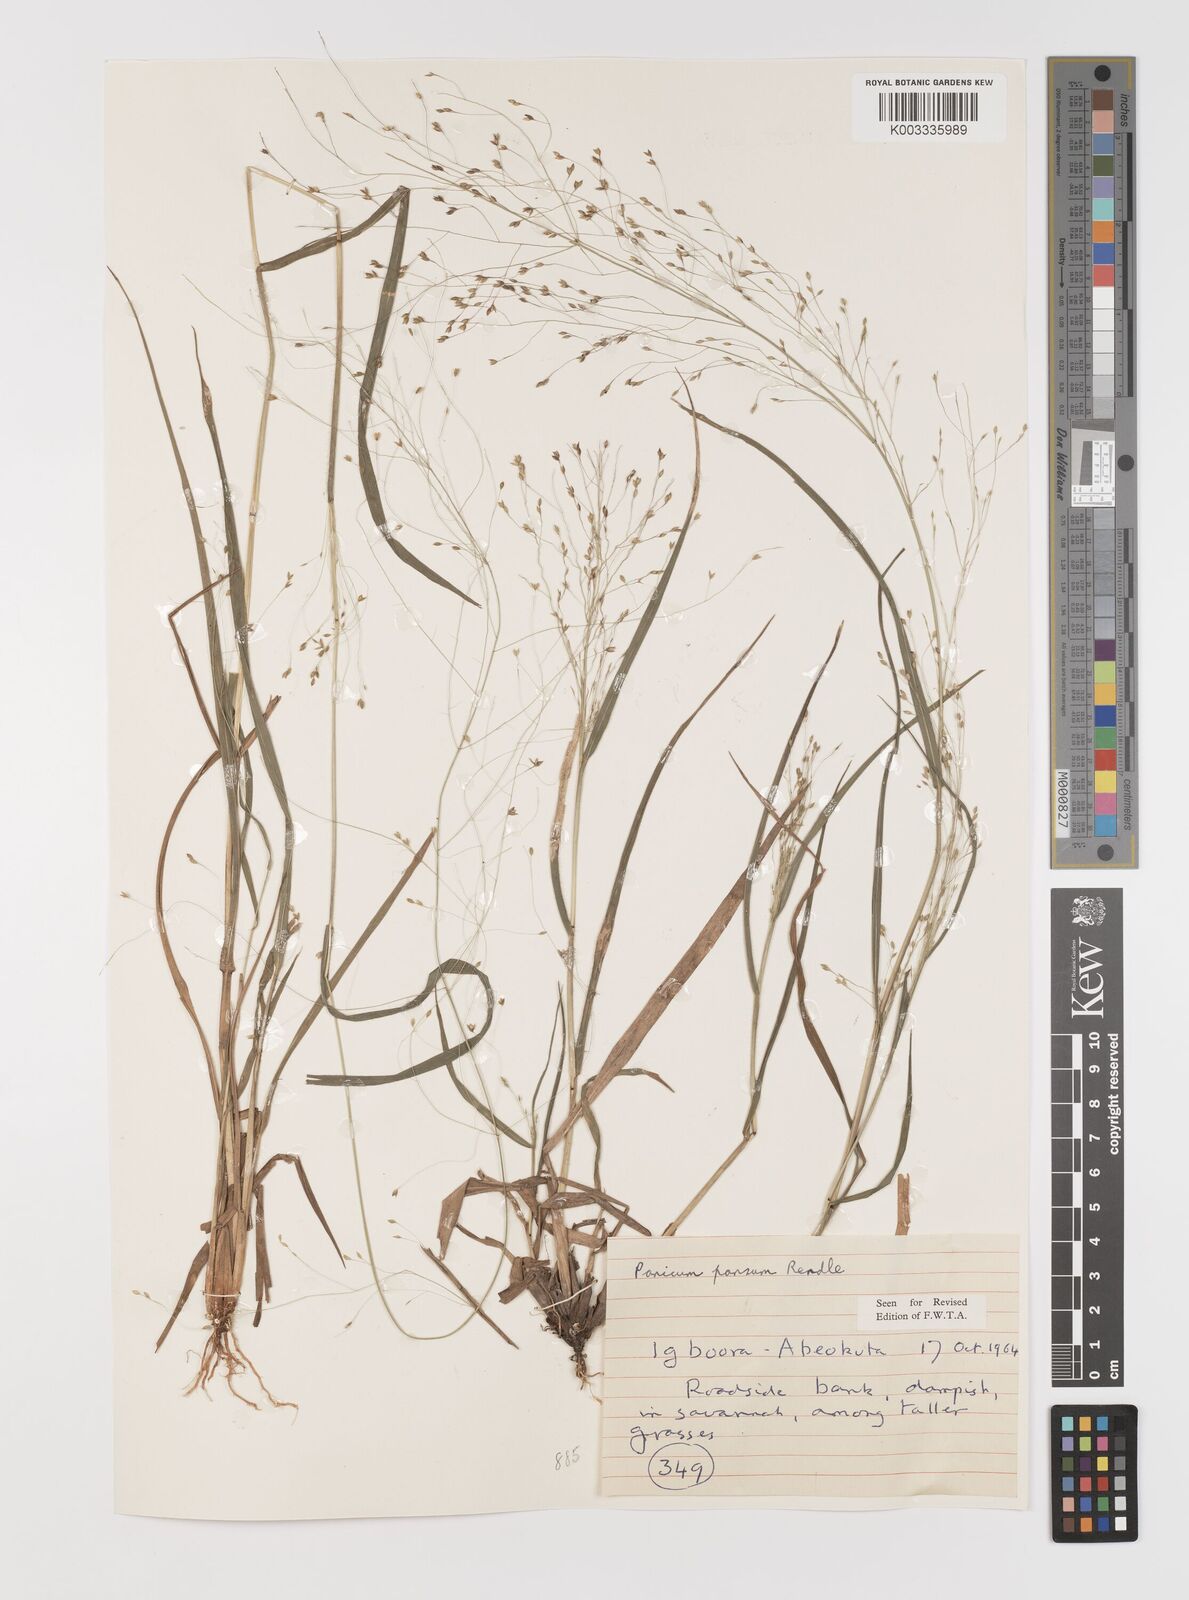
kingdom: Plantae
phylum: Tracheophyta
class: Liliopsida
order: Poales
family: Poaceae
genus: Panicum
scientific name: Panicum pansum
